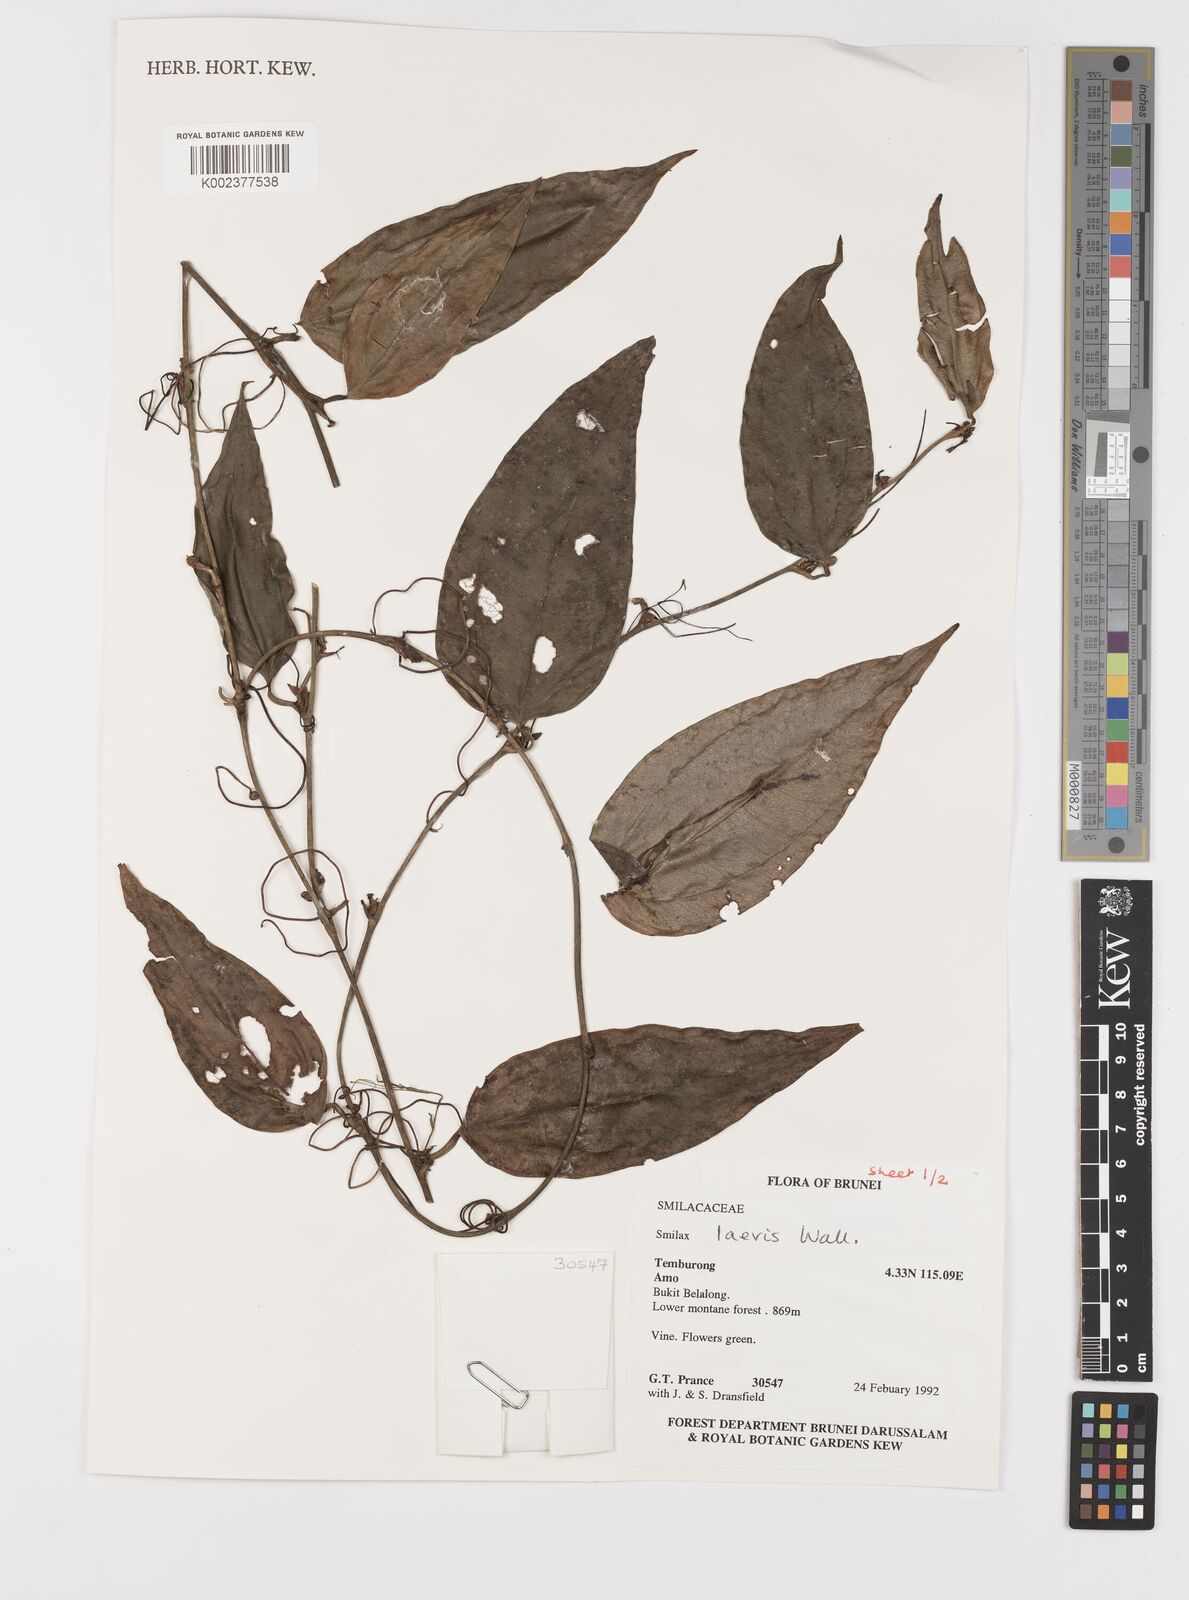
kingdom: Plantae
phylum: Tracheophyta
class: Liliopsida
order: Liliales
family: Smilacaceae
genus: Smilax
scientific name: Smilax laevis
